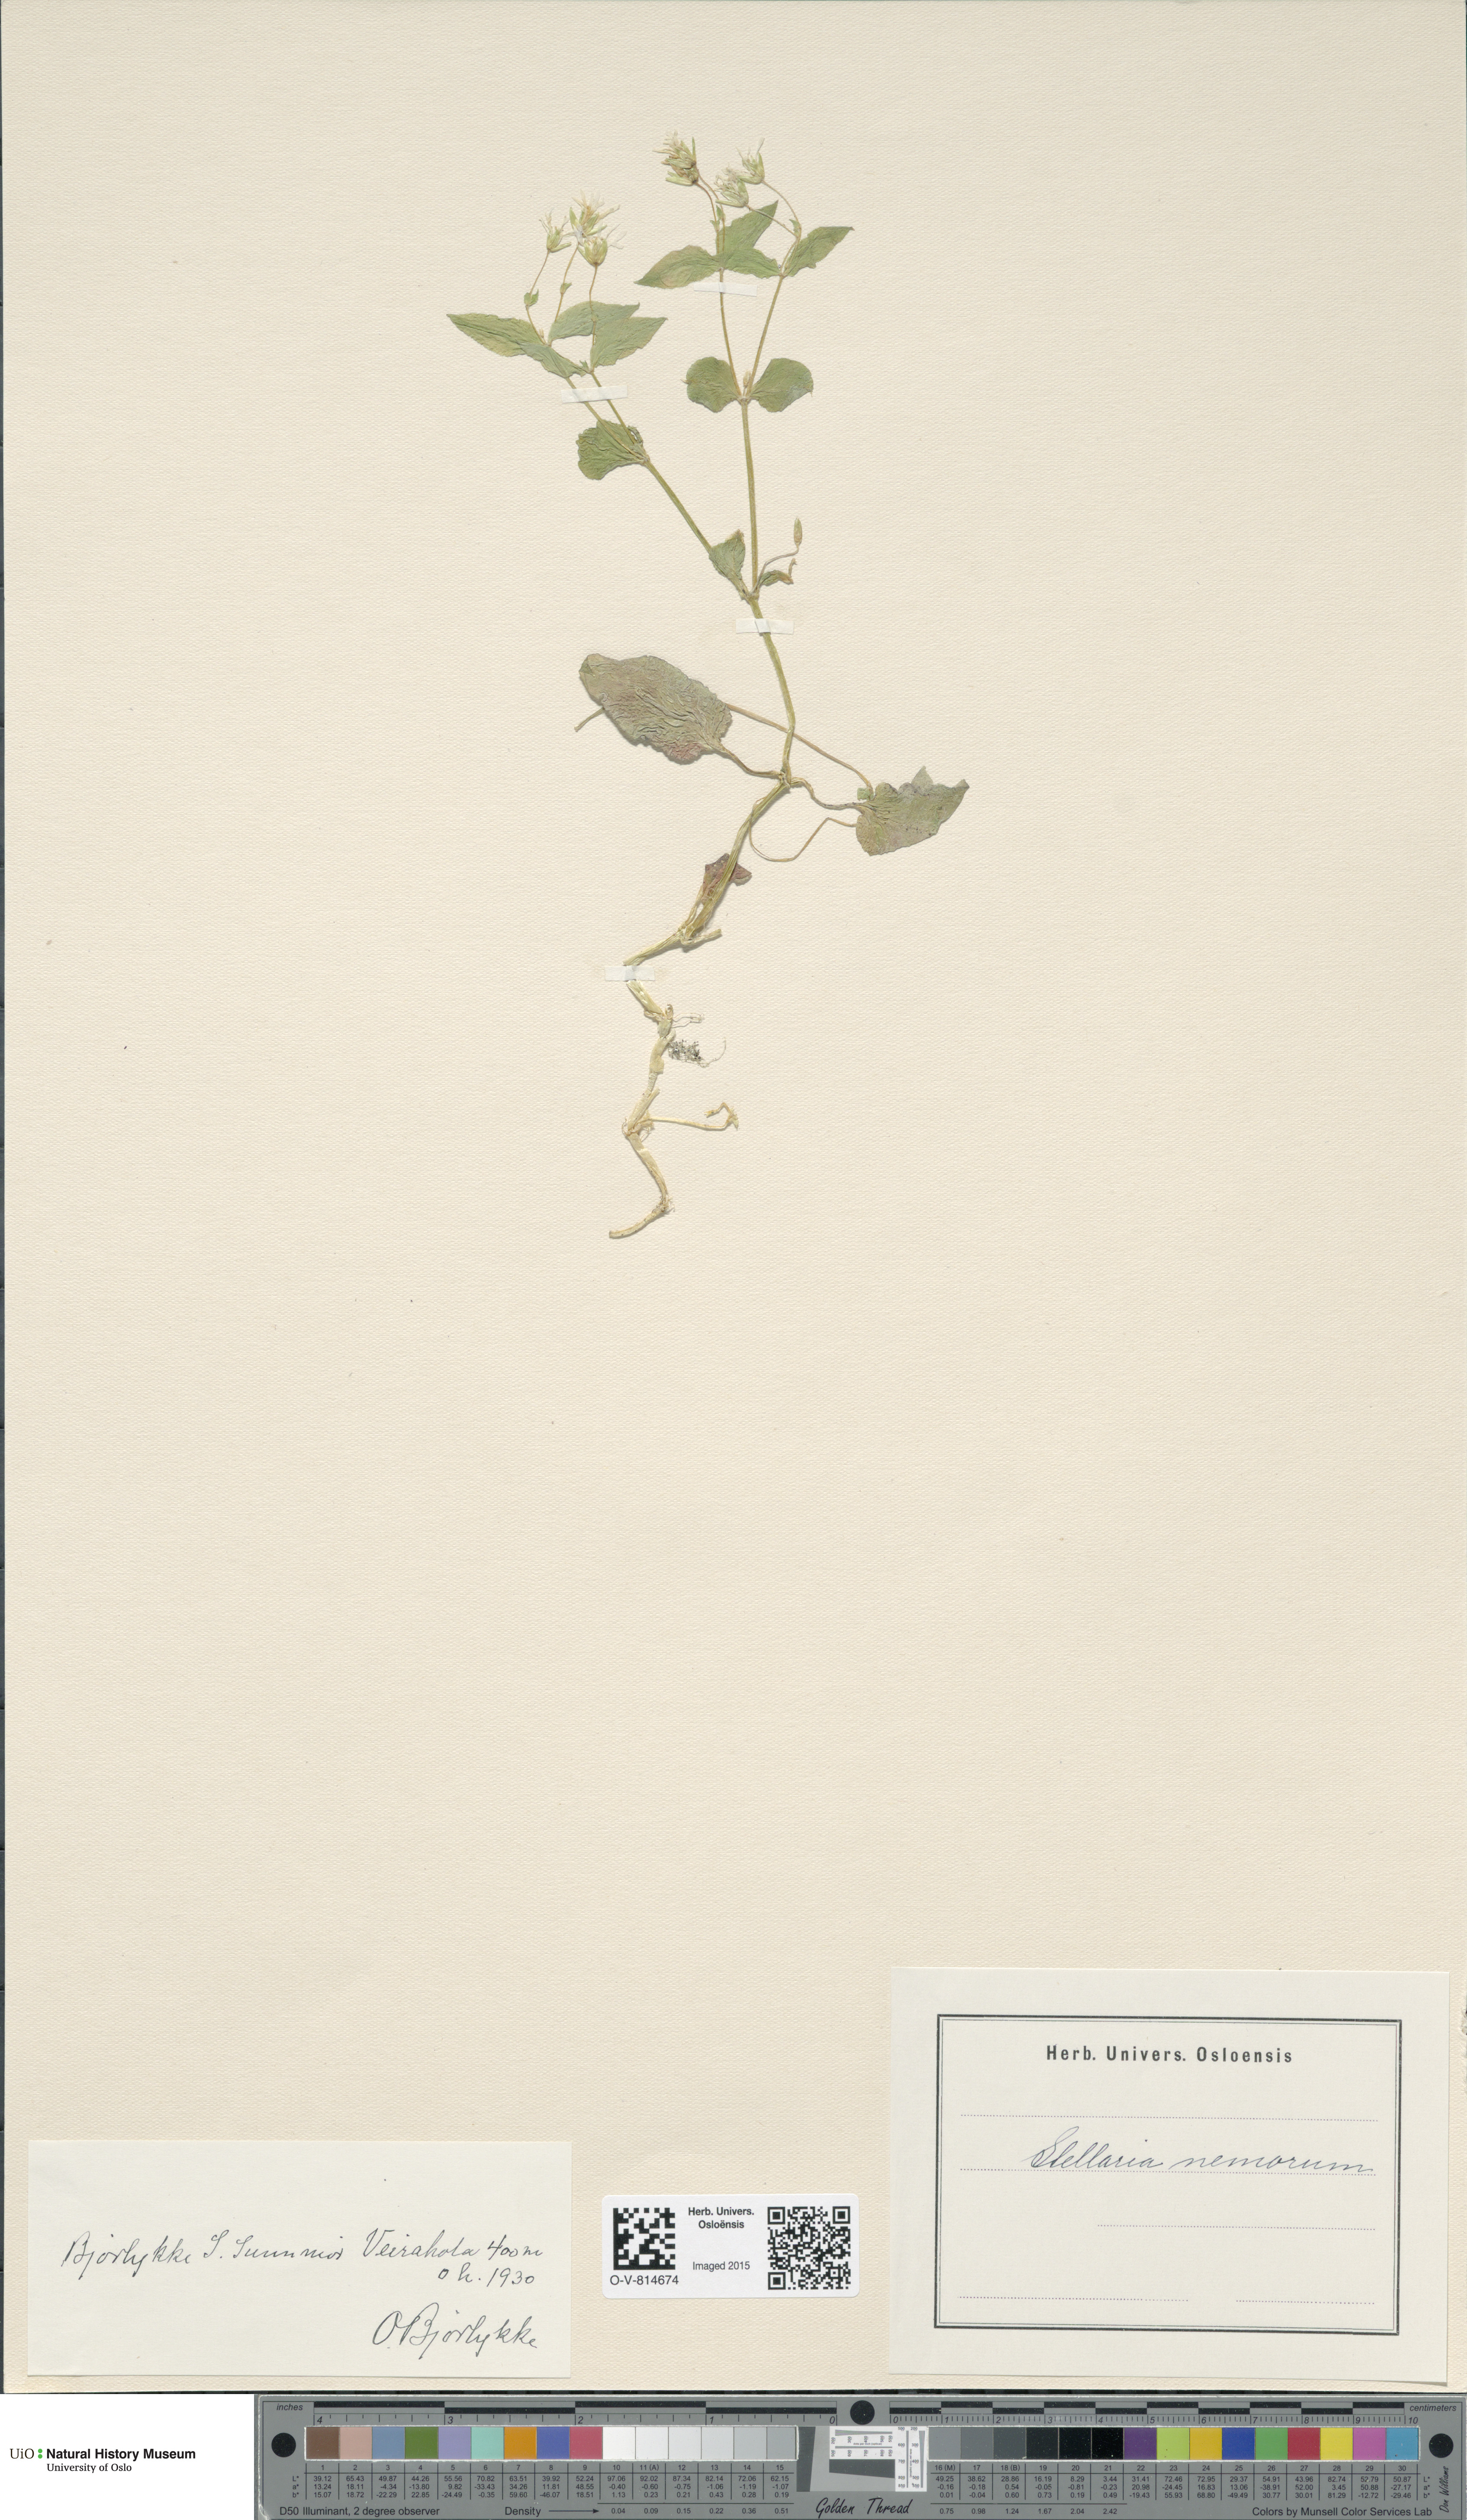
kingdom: Plantae
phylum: Tracheophyta
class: Magnoliopsida
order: Caryophyllales
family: Caryophyllaceae
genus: Stellaria
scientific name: Stellaria nemorum
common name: Wood stitchwort
